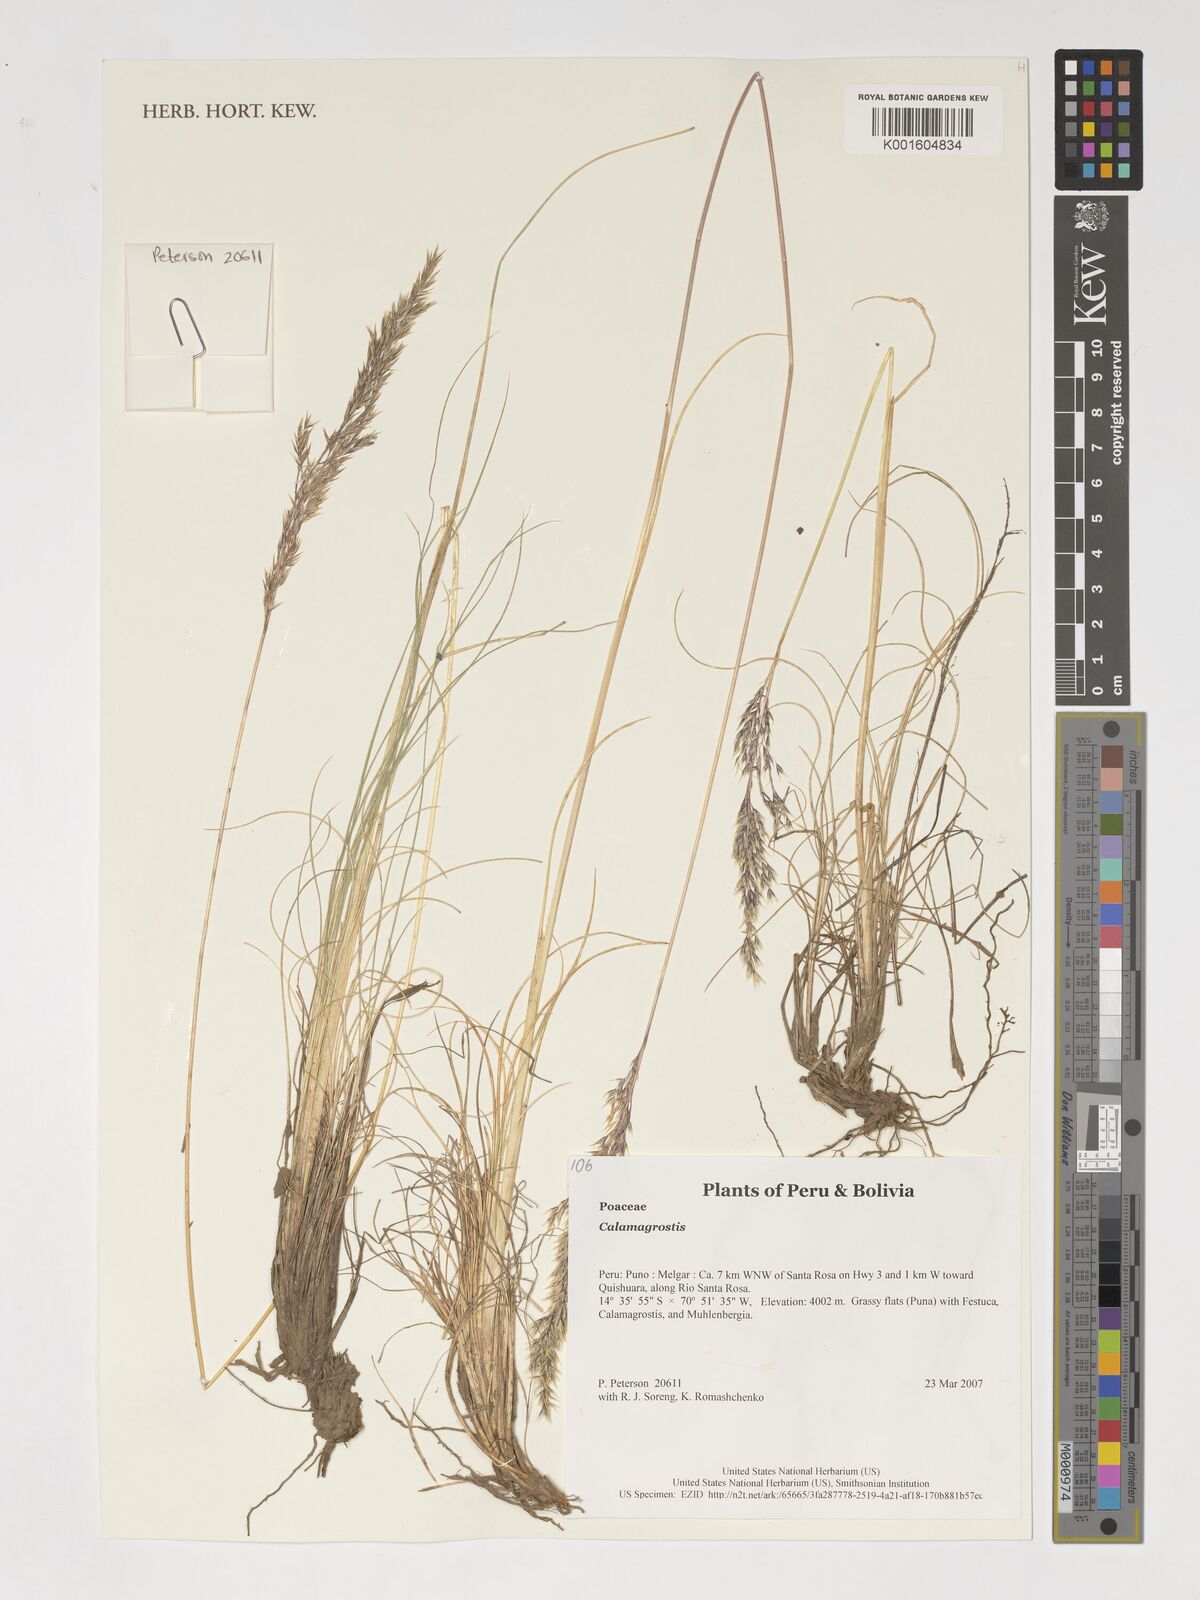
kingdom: Plantae
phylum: Tracheophyta
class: Liliopsida
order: Poales
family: Poaceae
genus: Calamagrostis
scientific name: Calamagrostis
